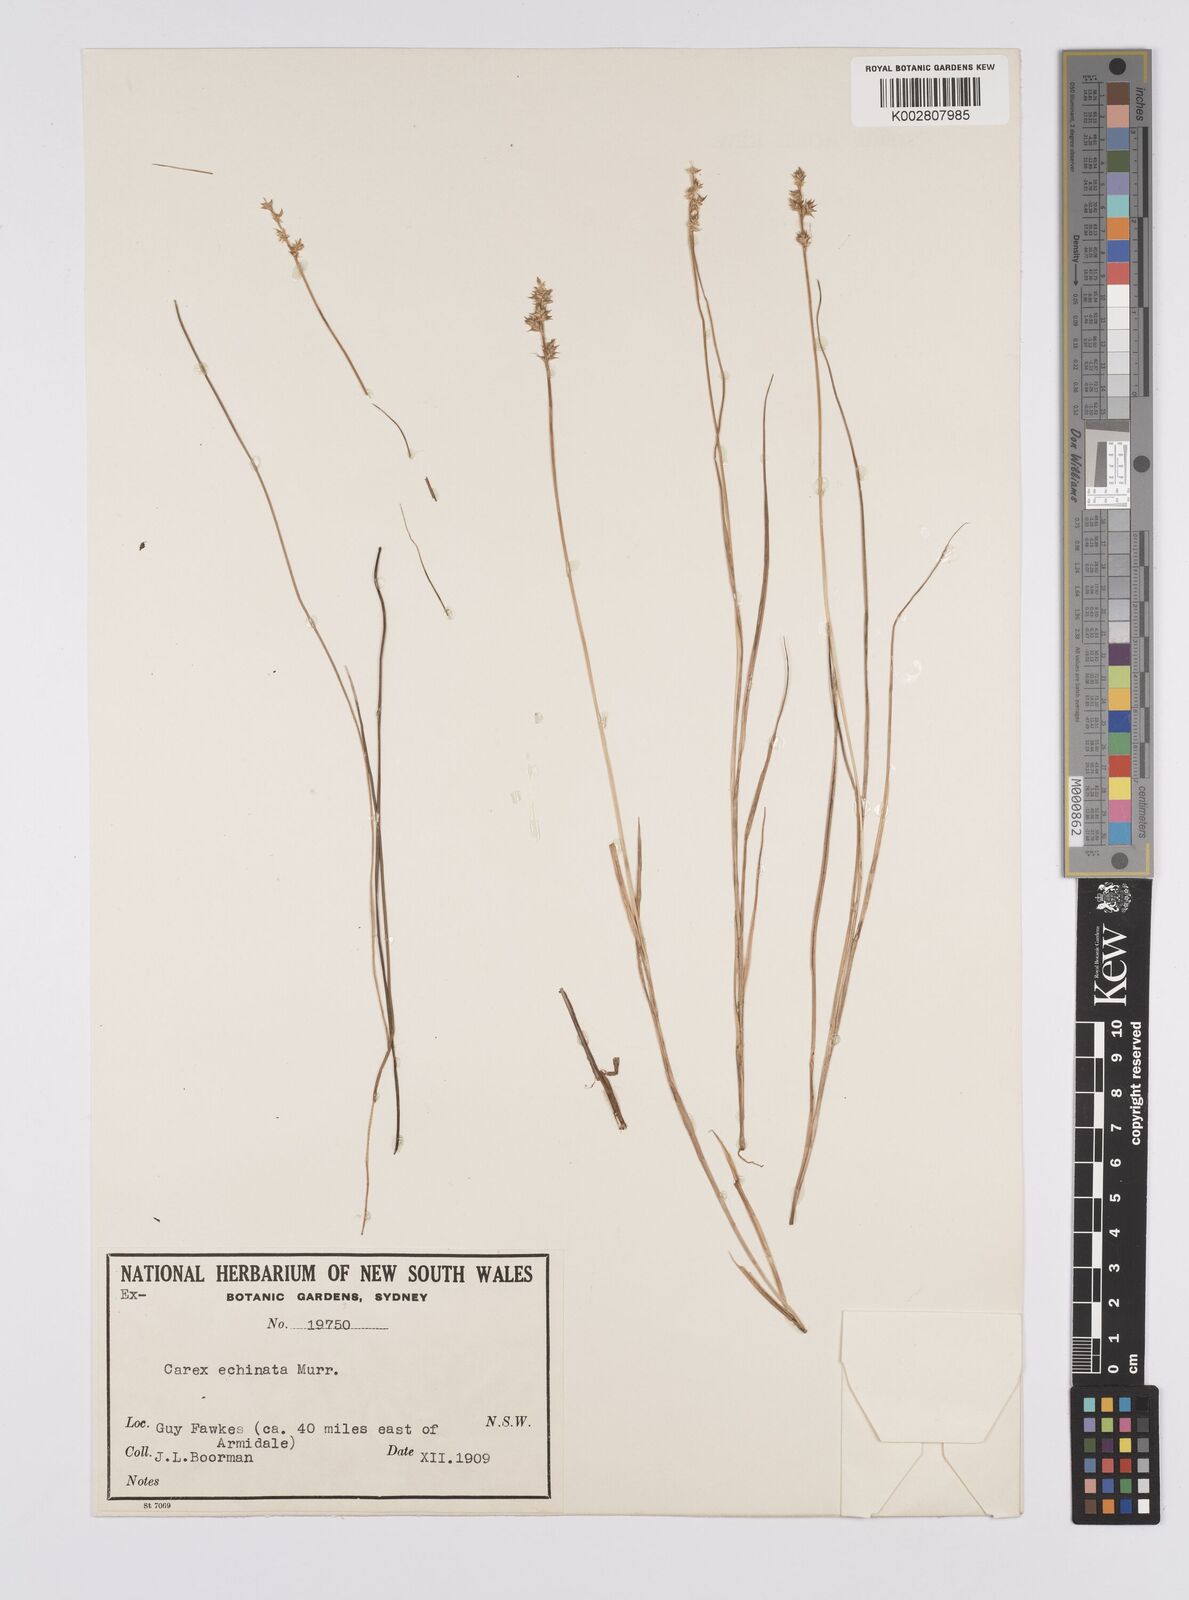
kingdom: Plantae
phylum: Tracheophyta
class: Liliopsida
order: Poales
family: Cyperaceae
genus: Carex
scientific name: Carex echinata
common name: Star sedge
